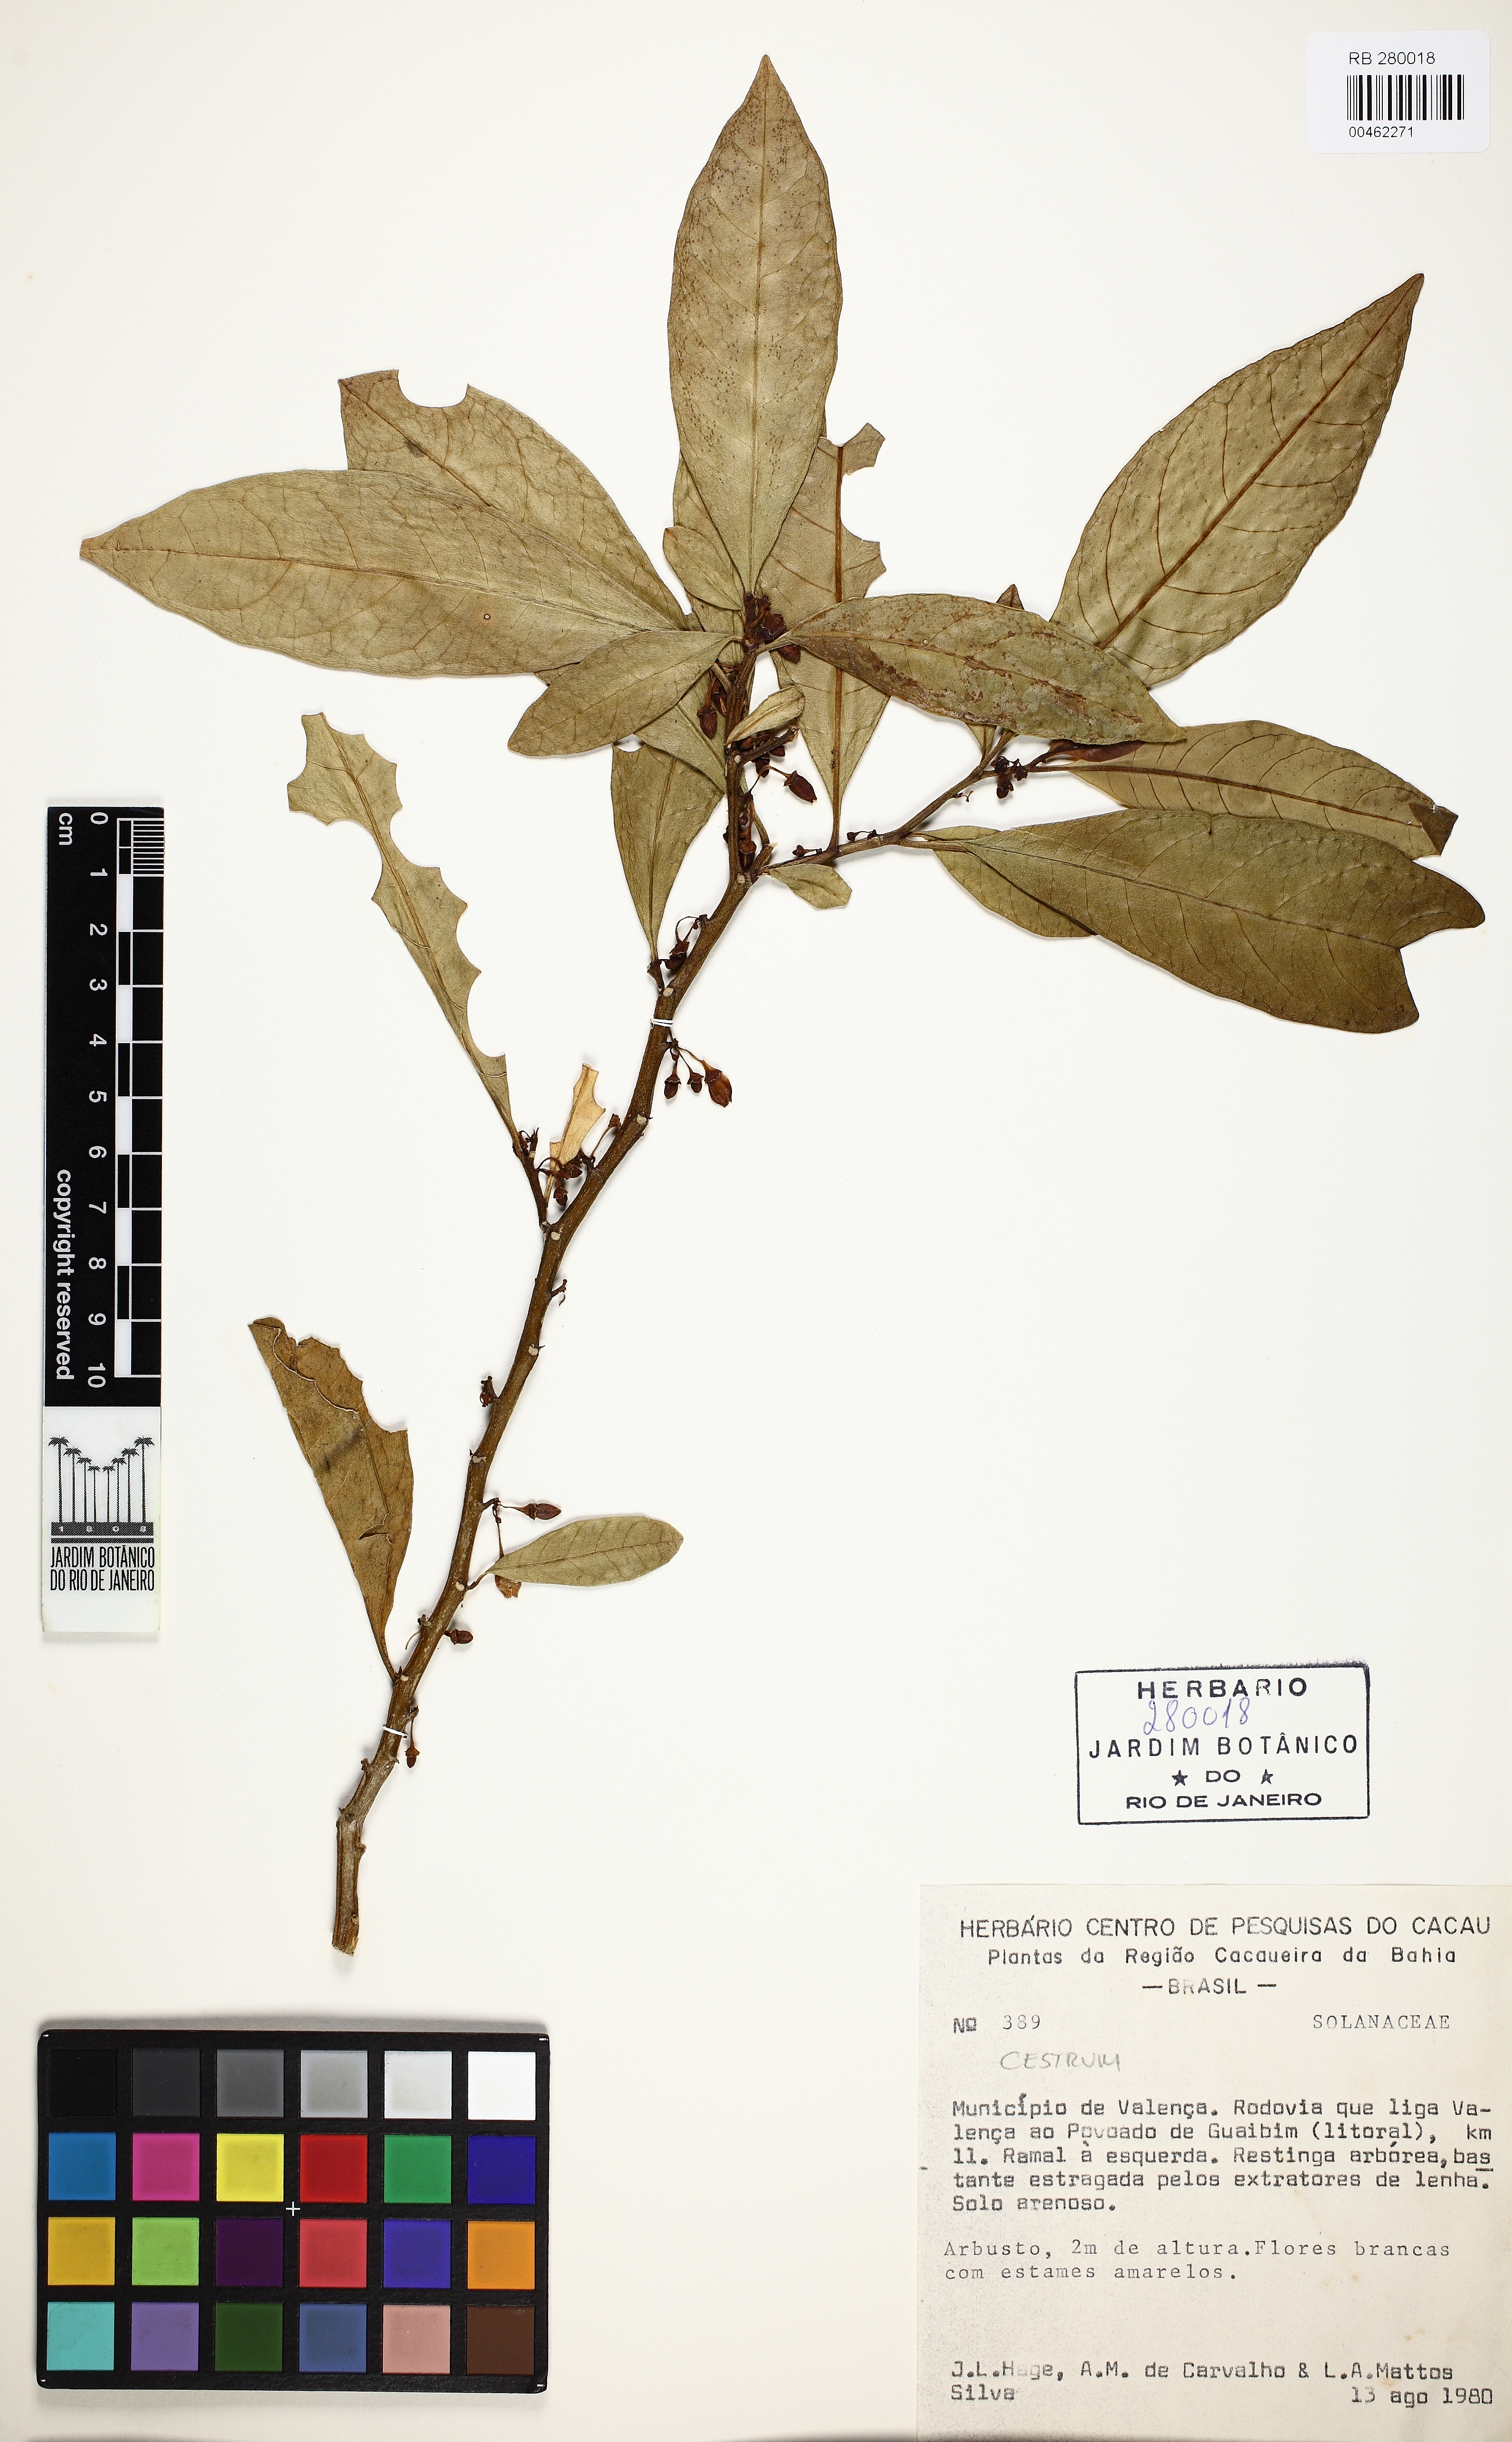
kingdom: Plantae
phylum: Tracheophyta
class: Magnoliopsida
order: Solanales
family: Solanaceae
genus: Cestrum
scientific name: Cestrum
